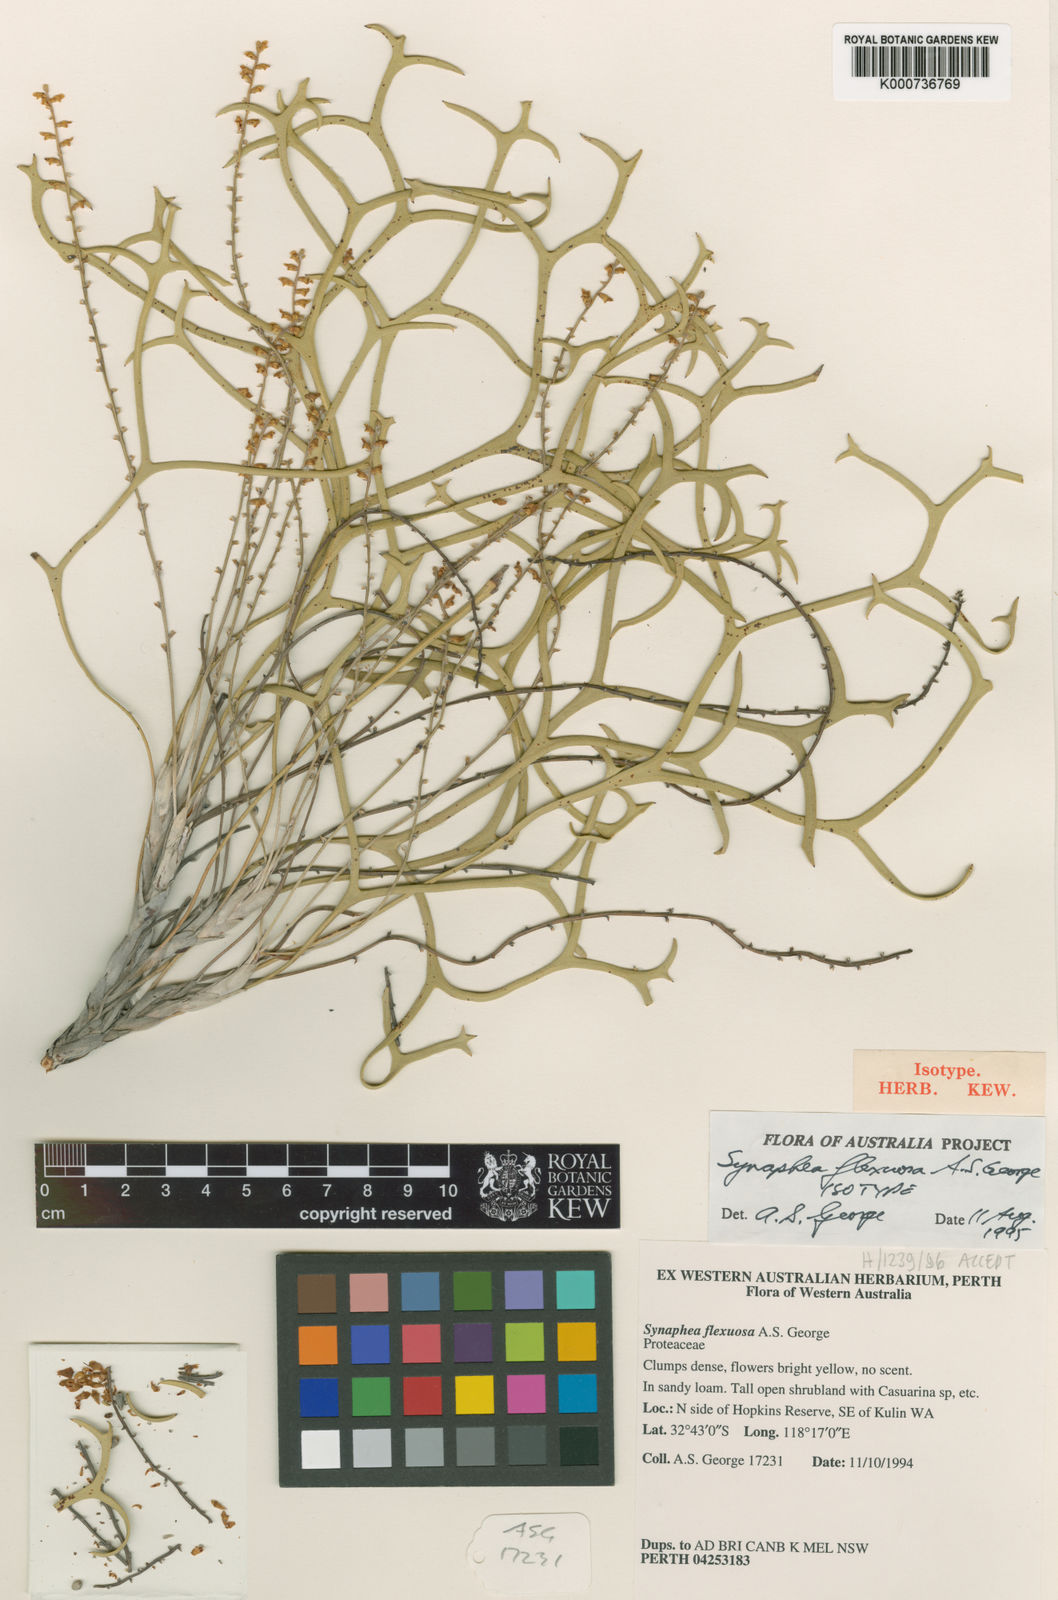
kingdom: Plantae
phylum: Tracheophyta
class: Magnoliopsida
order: Proteales
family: Proteaceae
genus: Synaphea
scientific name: Synaphea flexuosa
